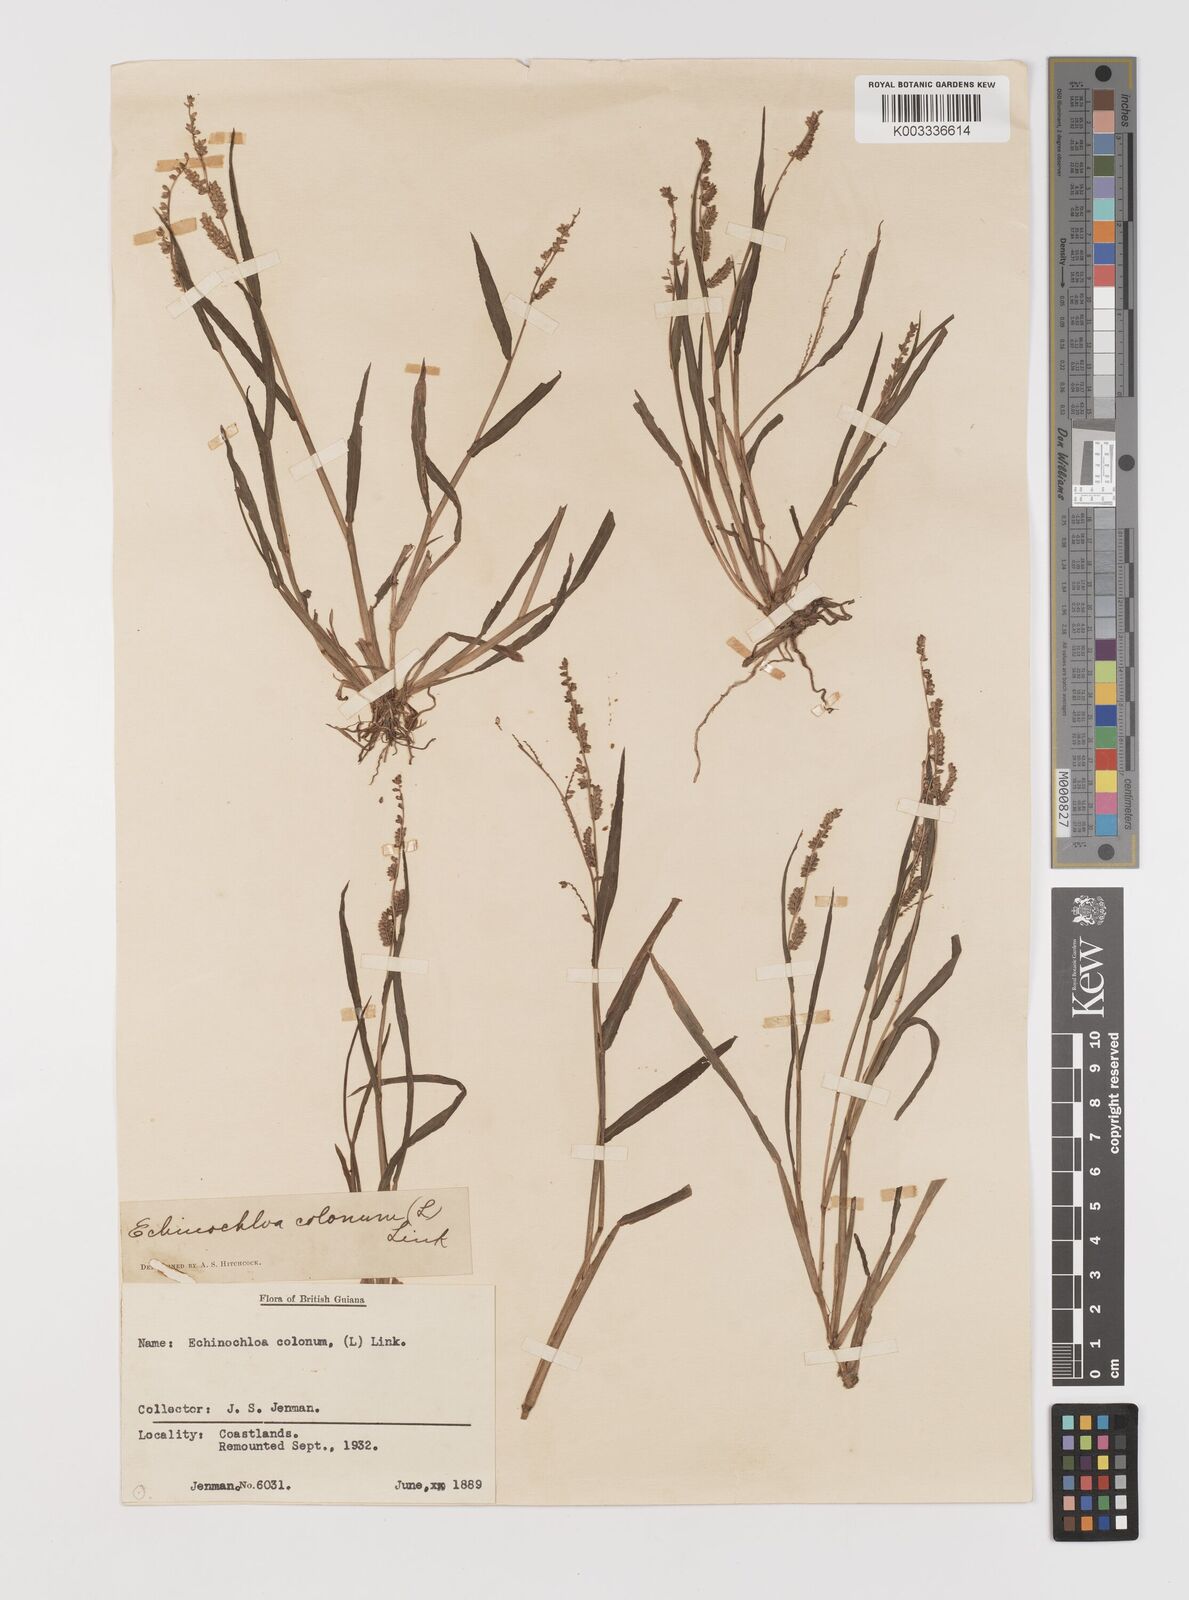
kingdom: Plantae
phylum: Tracheophyta
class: Liliopsida
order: Poales
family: Poaceae
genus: Echinochloa
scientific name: Echinochloa colonum
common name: Jungle rice
